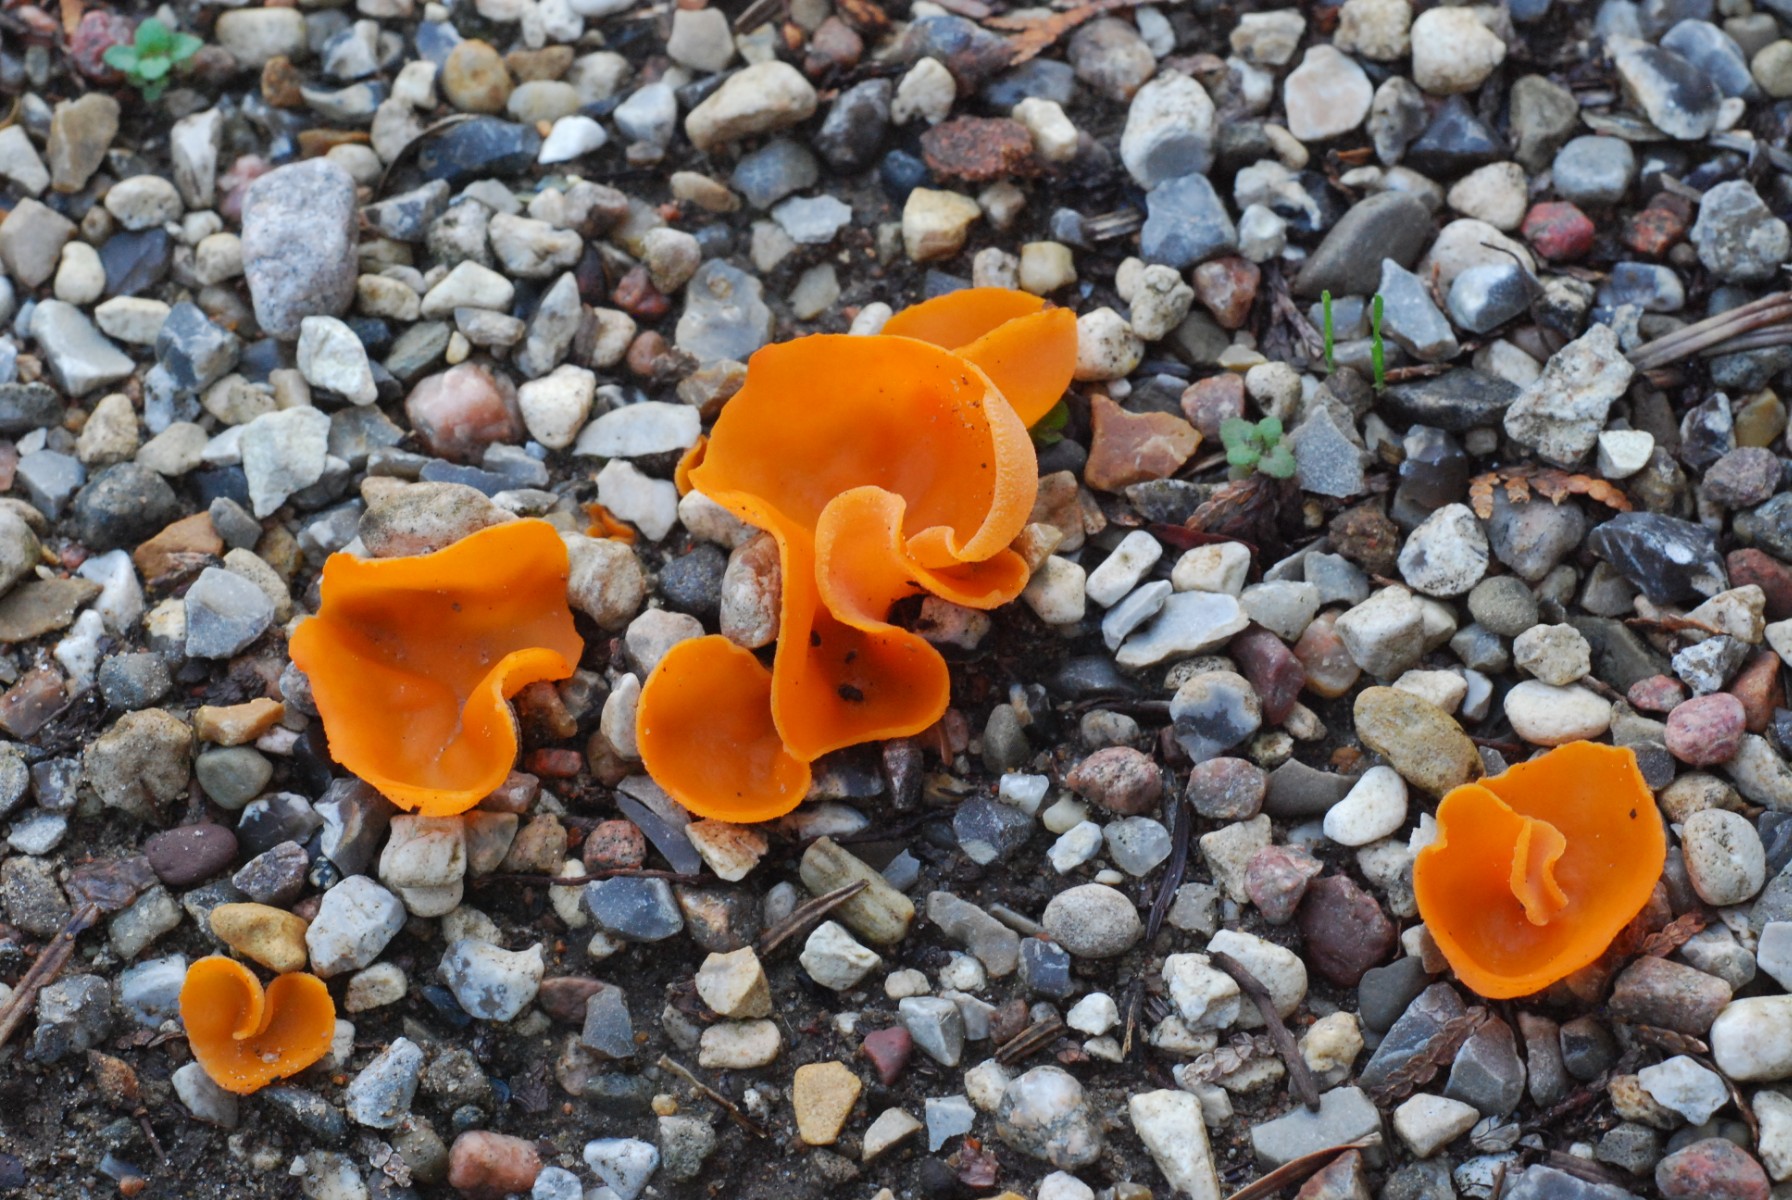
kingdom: Fungi
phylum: Ascomycota
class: Pezizomycetes
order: Pezizales
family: Pyronemataceae
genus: Aleuria
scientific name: Aleuria aurantia
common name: almindelig orangebæger
